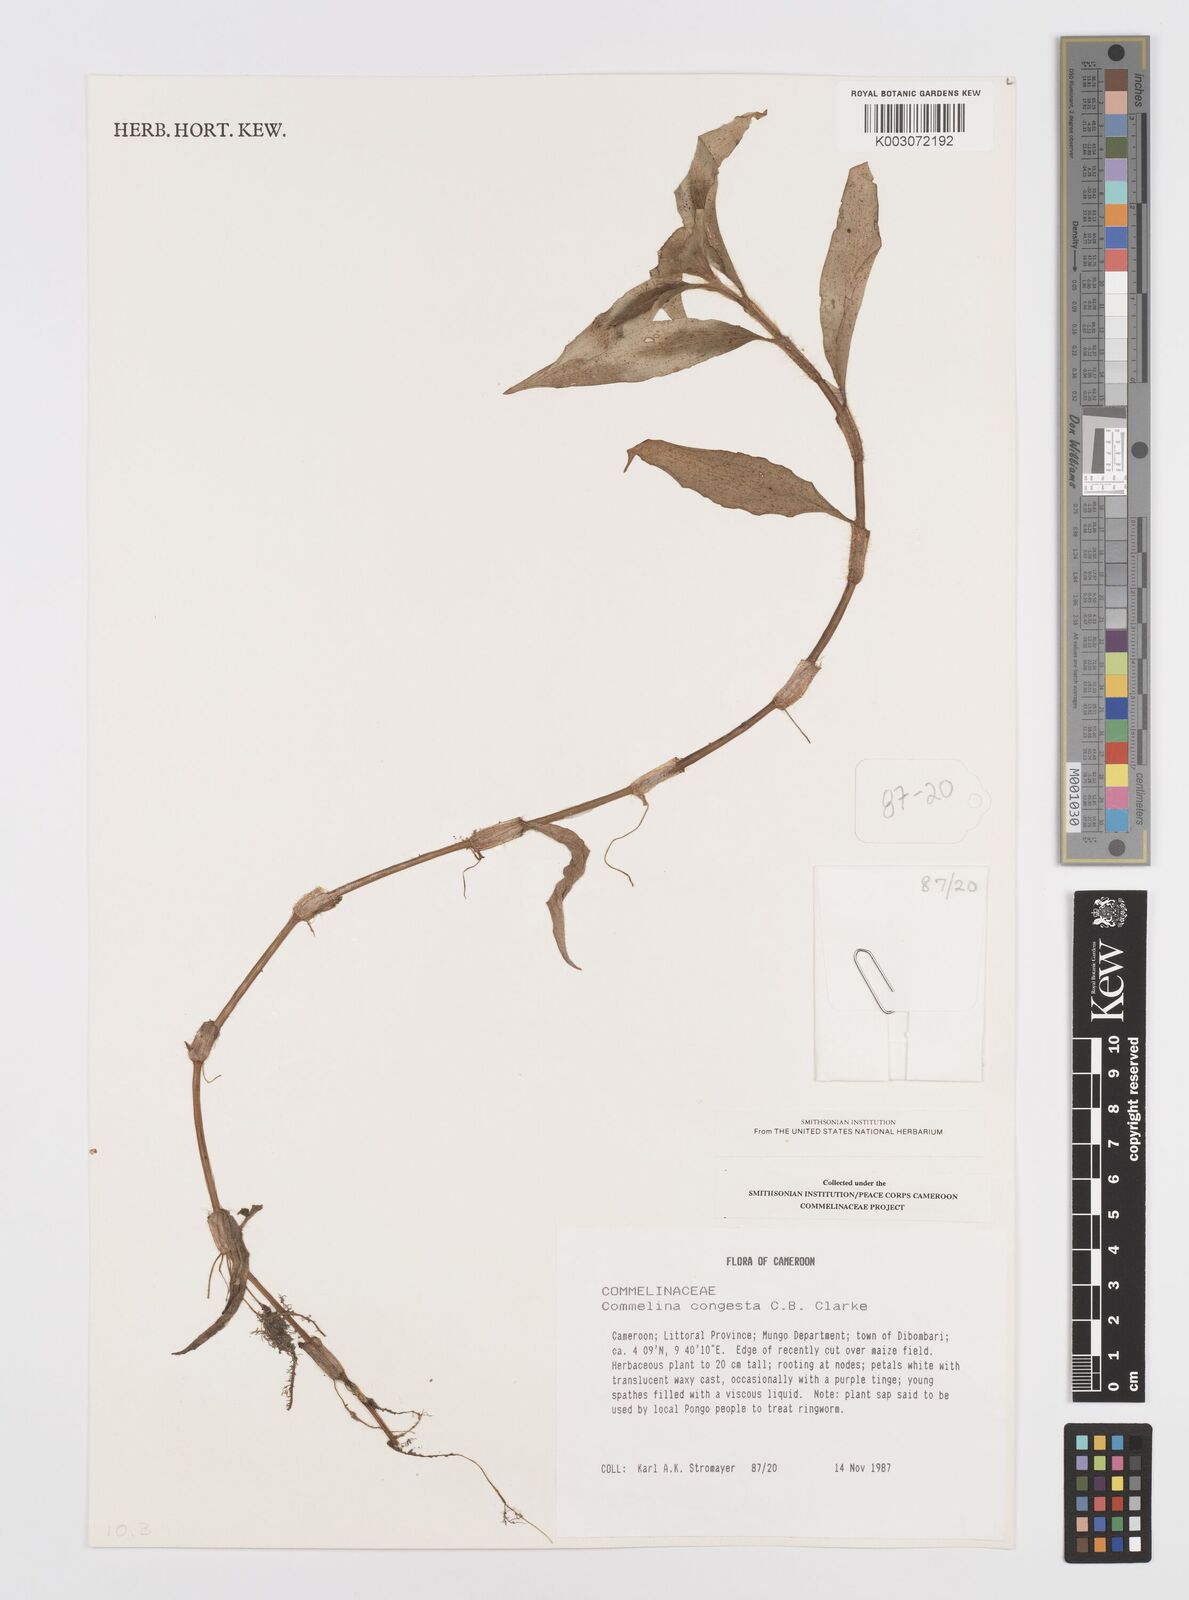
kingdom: Plantae
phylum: Tracheophyta
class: Liliopsida
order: Commelinales
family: Commelinaceae
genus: Commelina
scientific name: Commelina congesta
